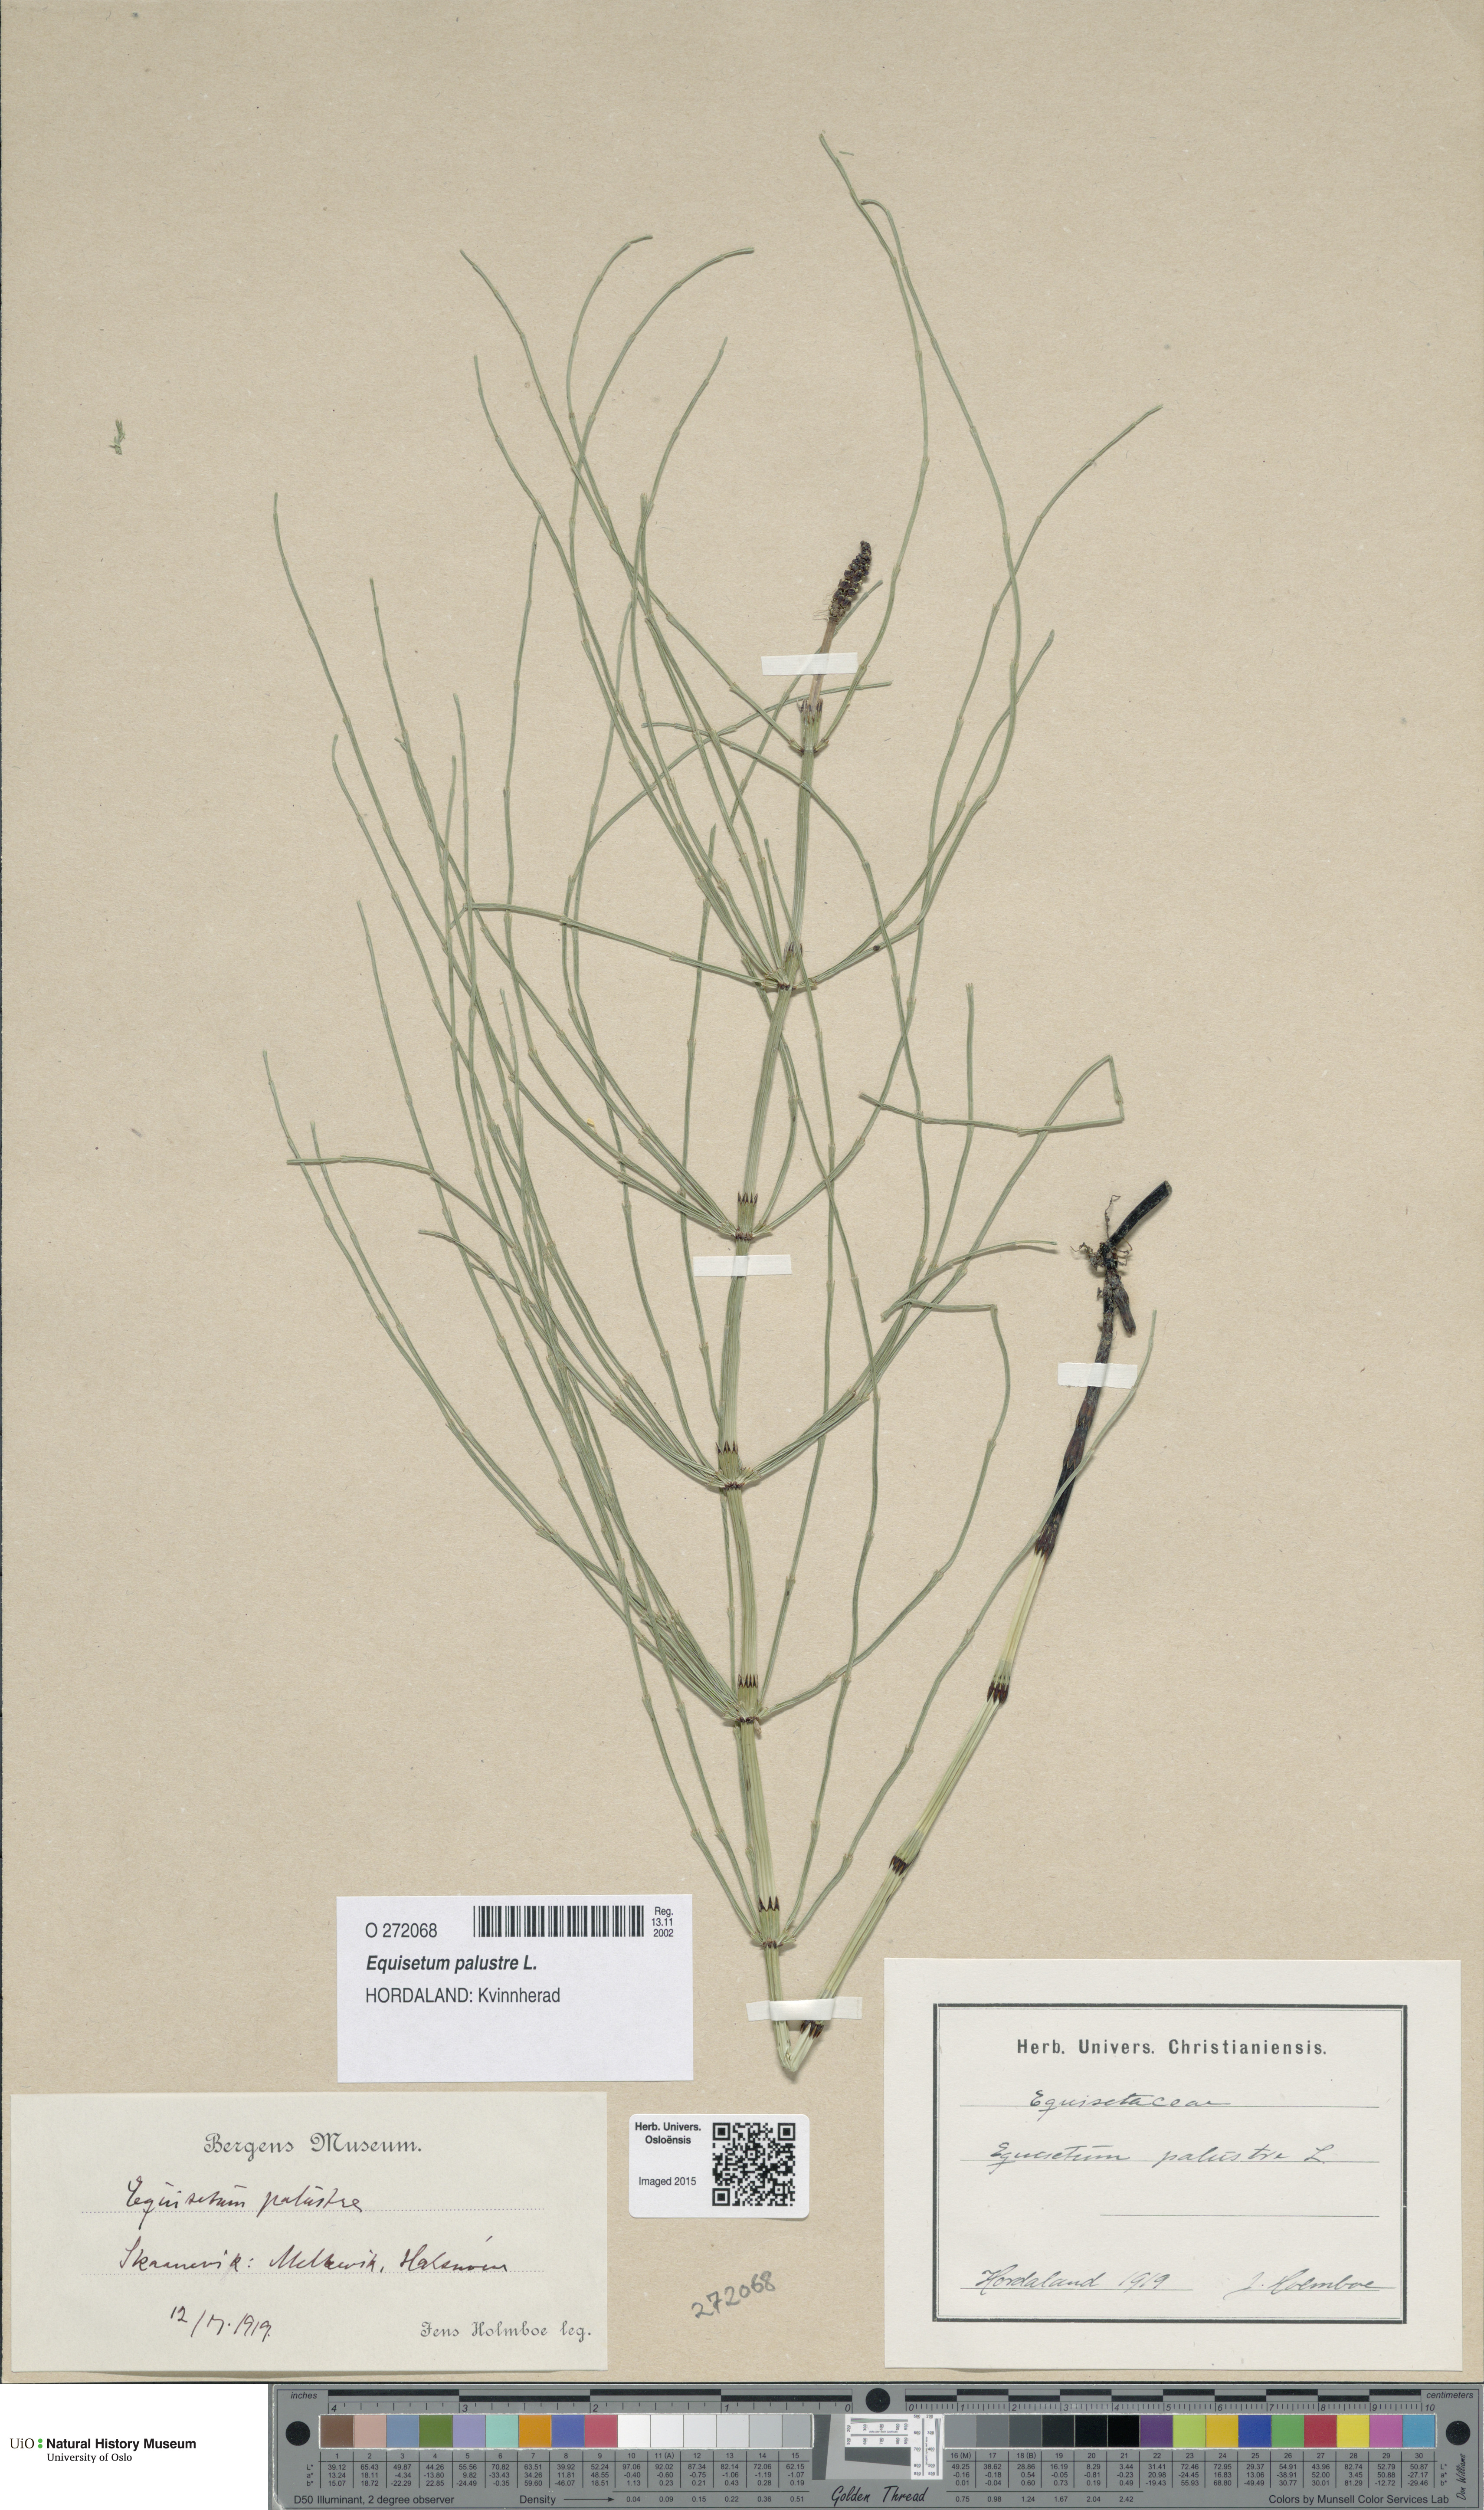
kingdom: Plantae
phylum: Tracheophyta
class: Polypodiopsida
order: Equisetales
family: Equisetaceae
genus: Equisetum
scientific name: Equisetum palustre
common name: Marsh horsetail
